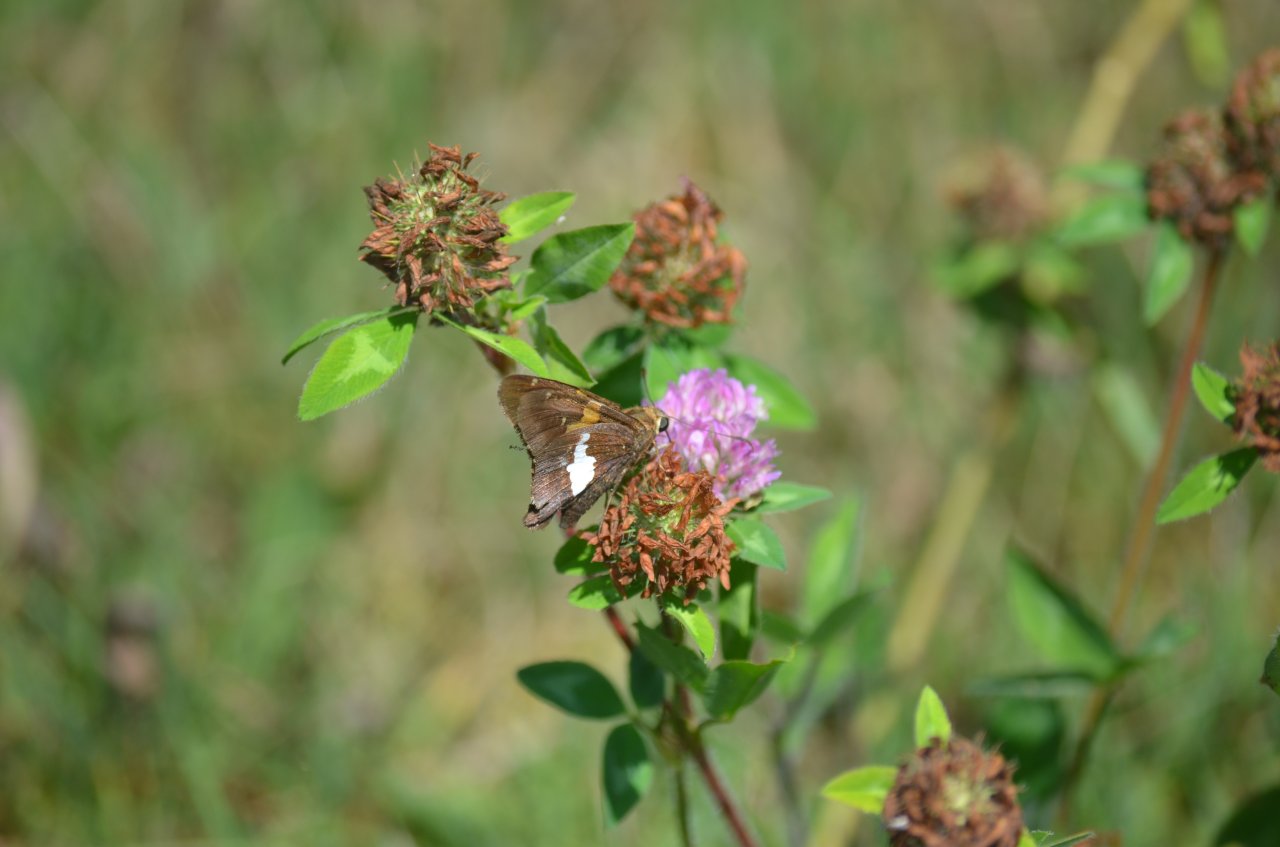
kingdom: Animalia
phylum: Arthropoda
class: Insecta
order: Lepidoptera
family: Hesperiidae
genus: Epargyreus
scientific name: Epargyreus clarus
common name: Silver-spotted Skipper
